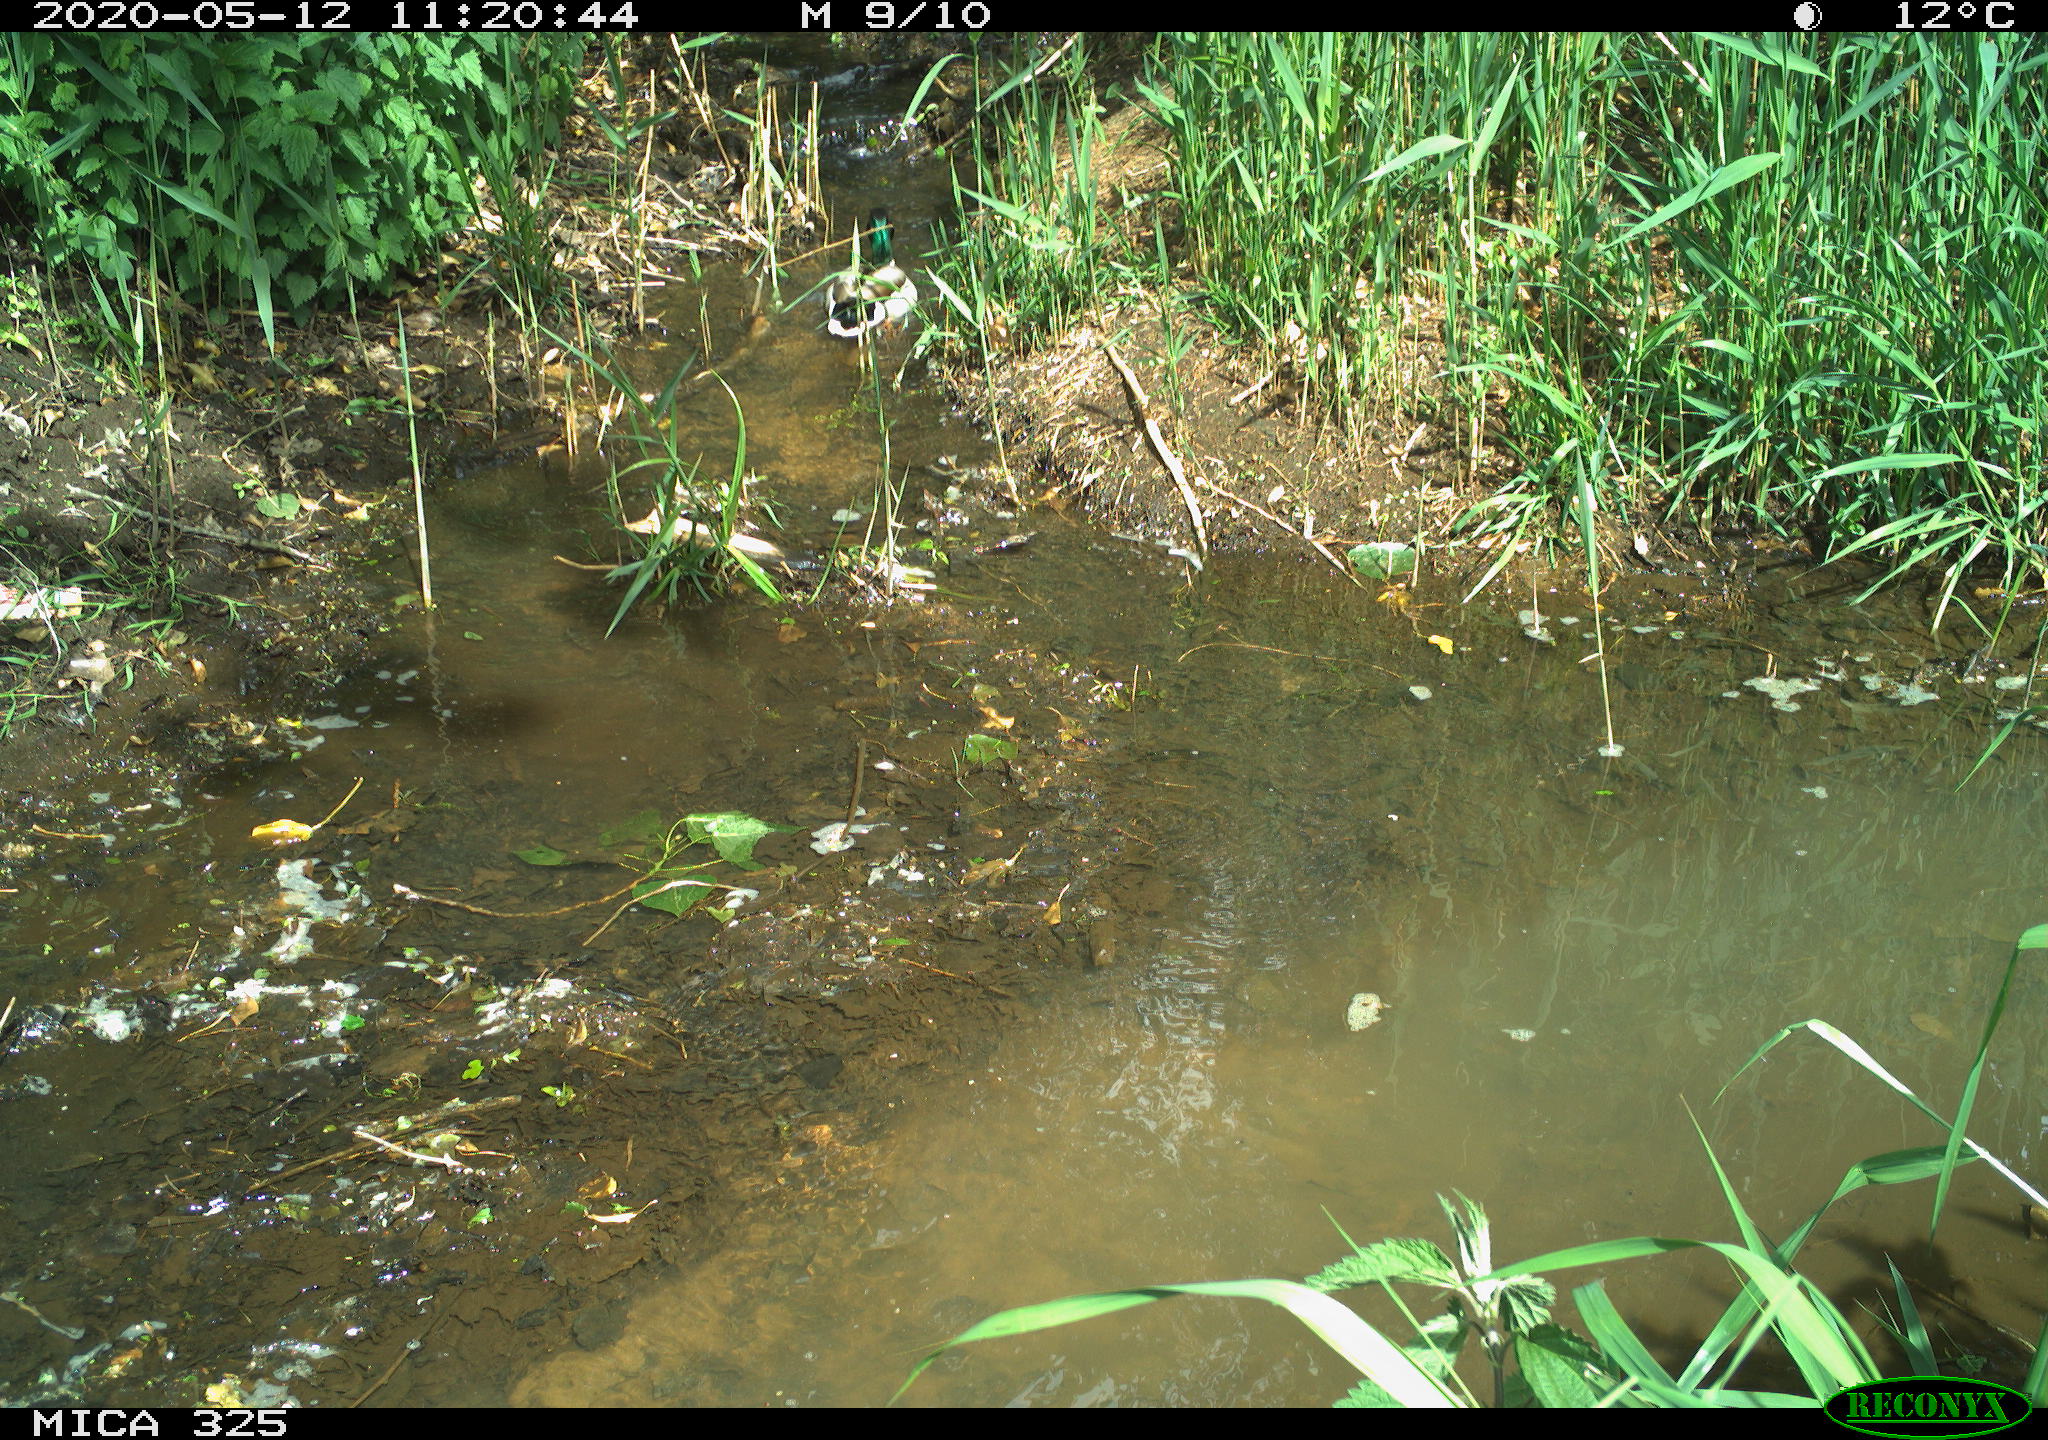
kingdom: Animalia
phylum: Chordata
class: Aves
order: Anseriformes
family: Anatidae
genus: Anas
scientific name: Anas platyrhynchos
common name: Mallard
